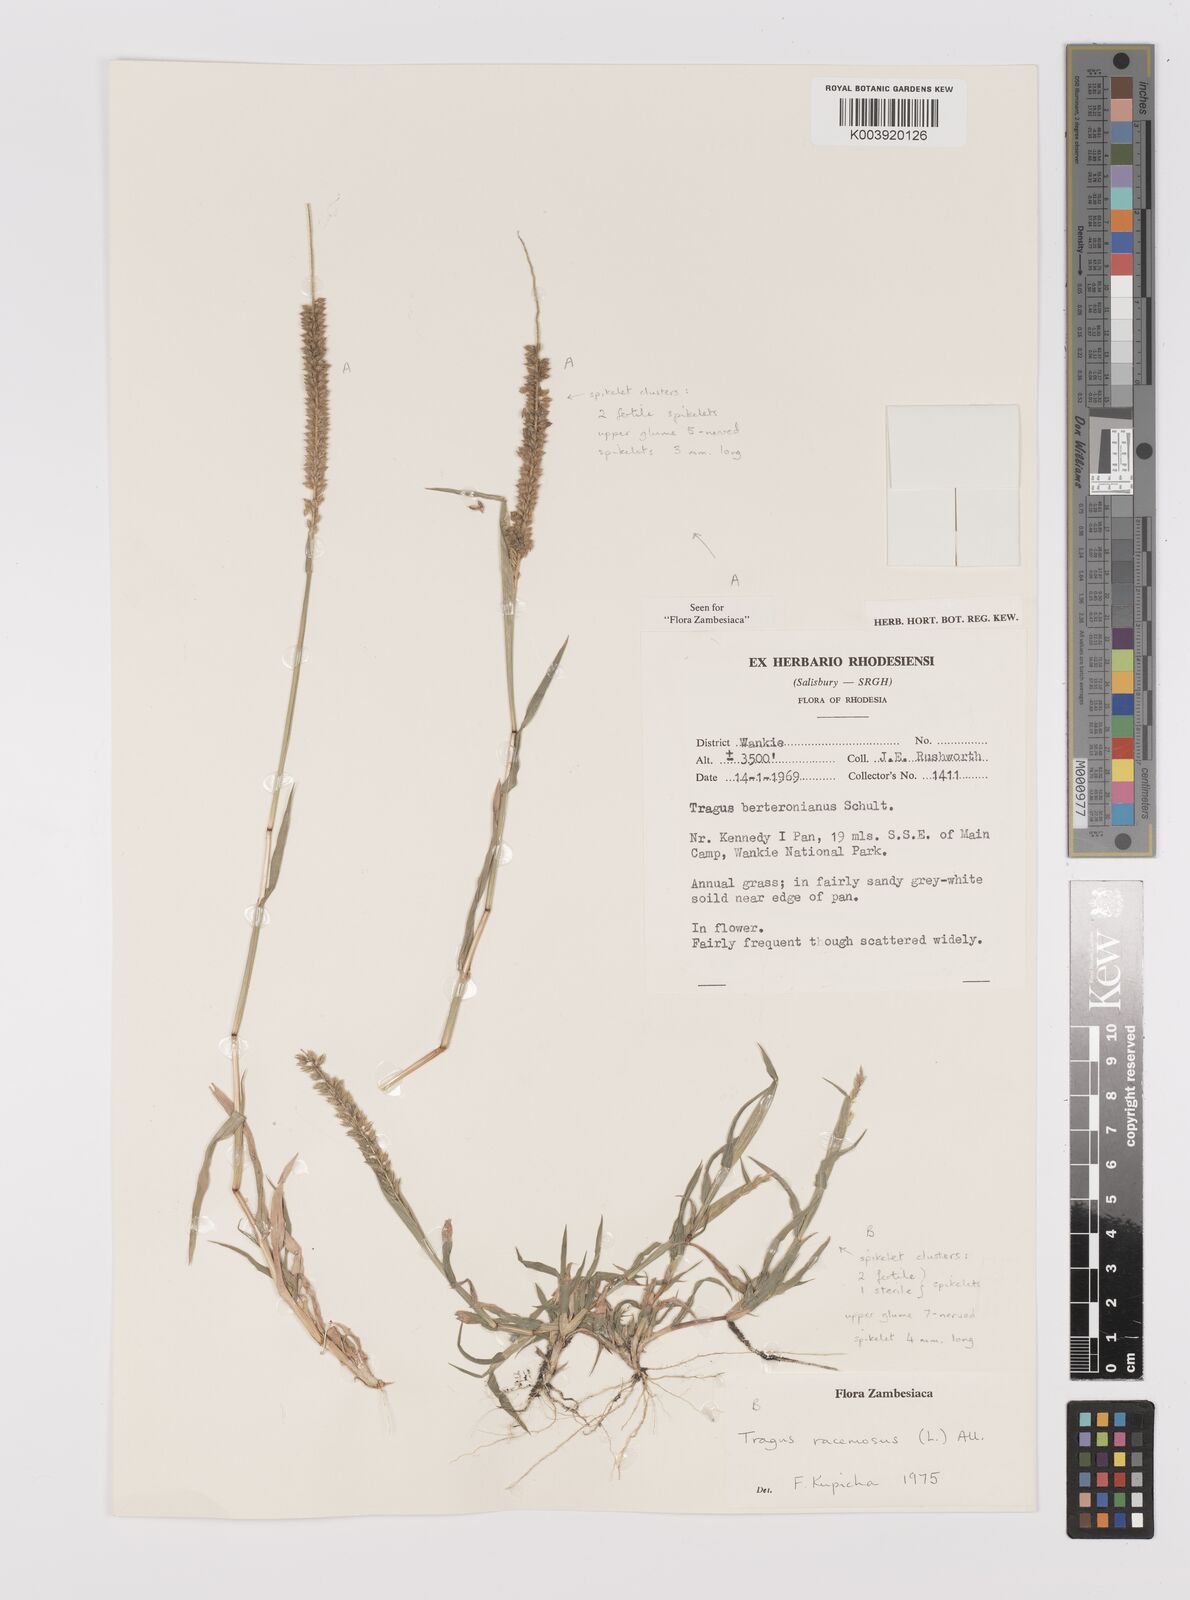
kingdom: Plantae
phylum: Tracheophyta
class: Liliopsida
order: Poales
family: Poaceae
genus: Tragus
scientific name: Tragus racemosus
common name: European bur-grass
